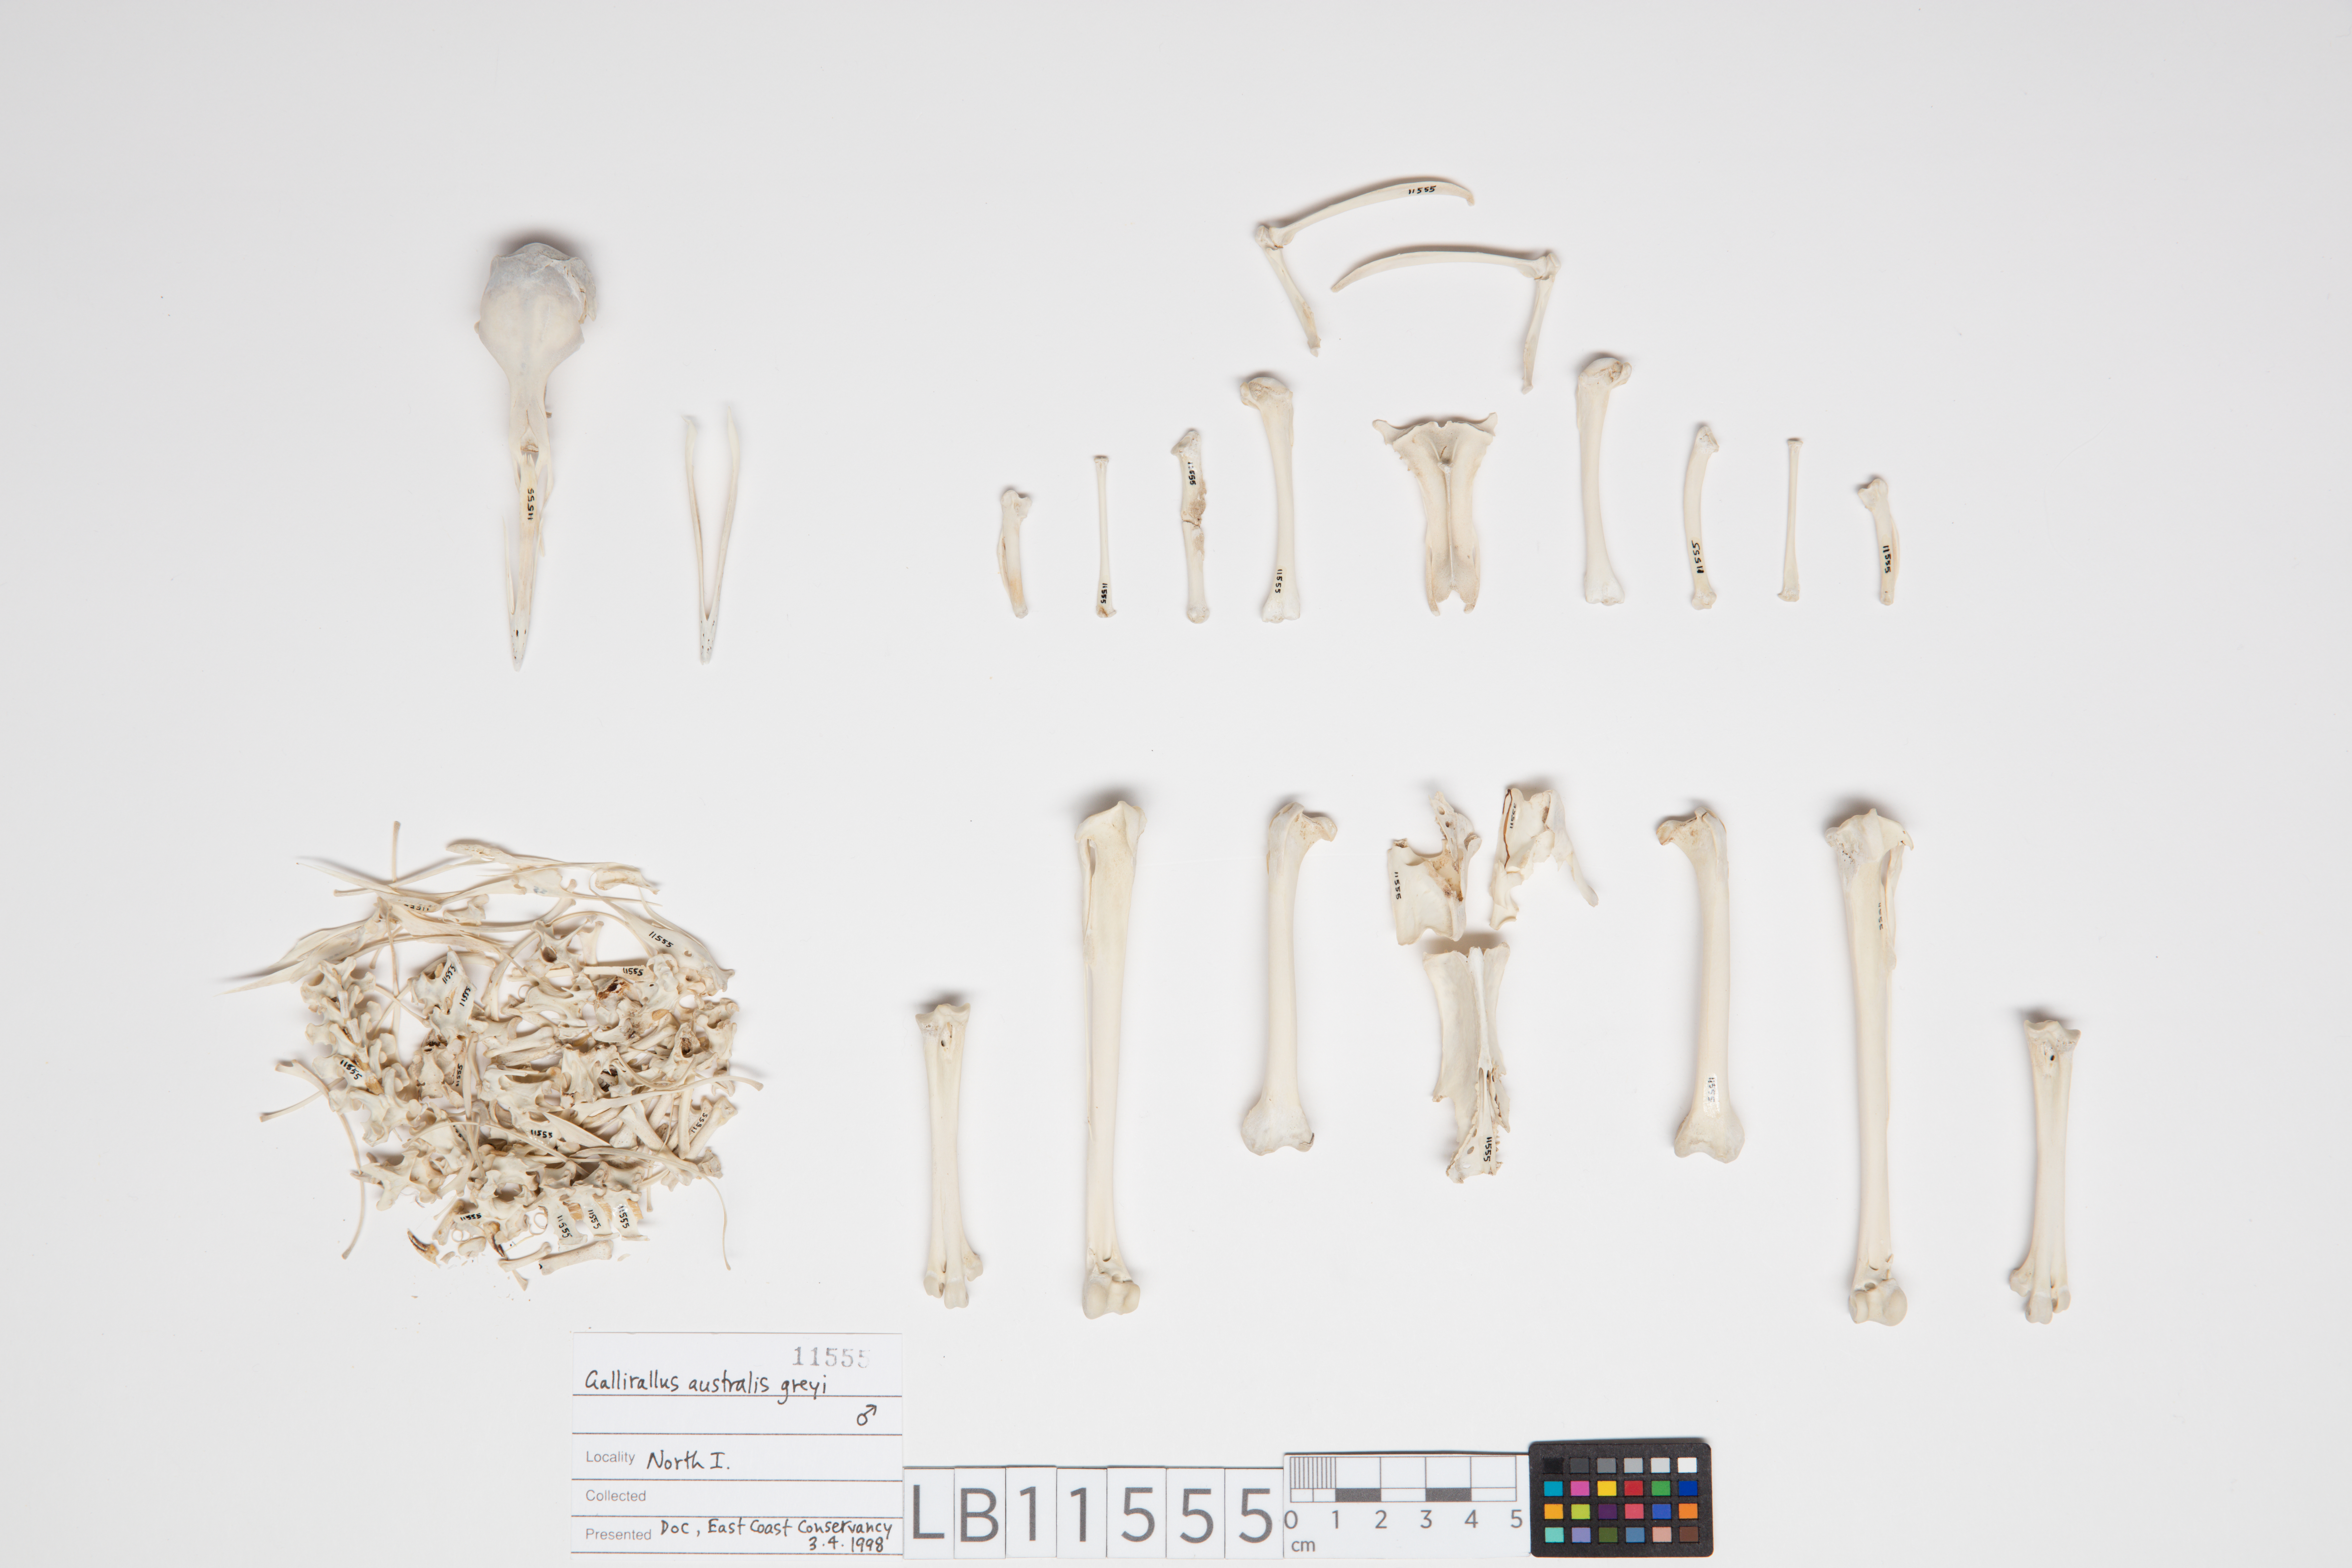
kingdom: Animalia
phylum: Chordata
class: Aves
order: Gruiformes
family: Rallidae
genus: Gallirallus
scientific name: Gallirallus australis
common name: Weka
